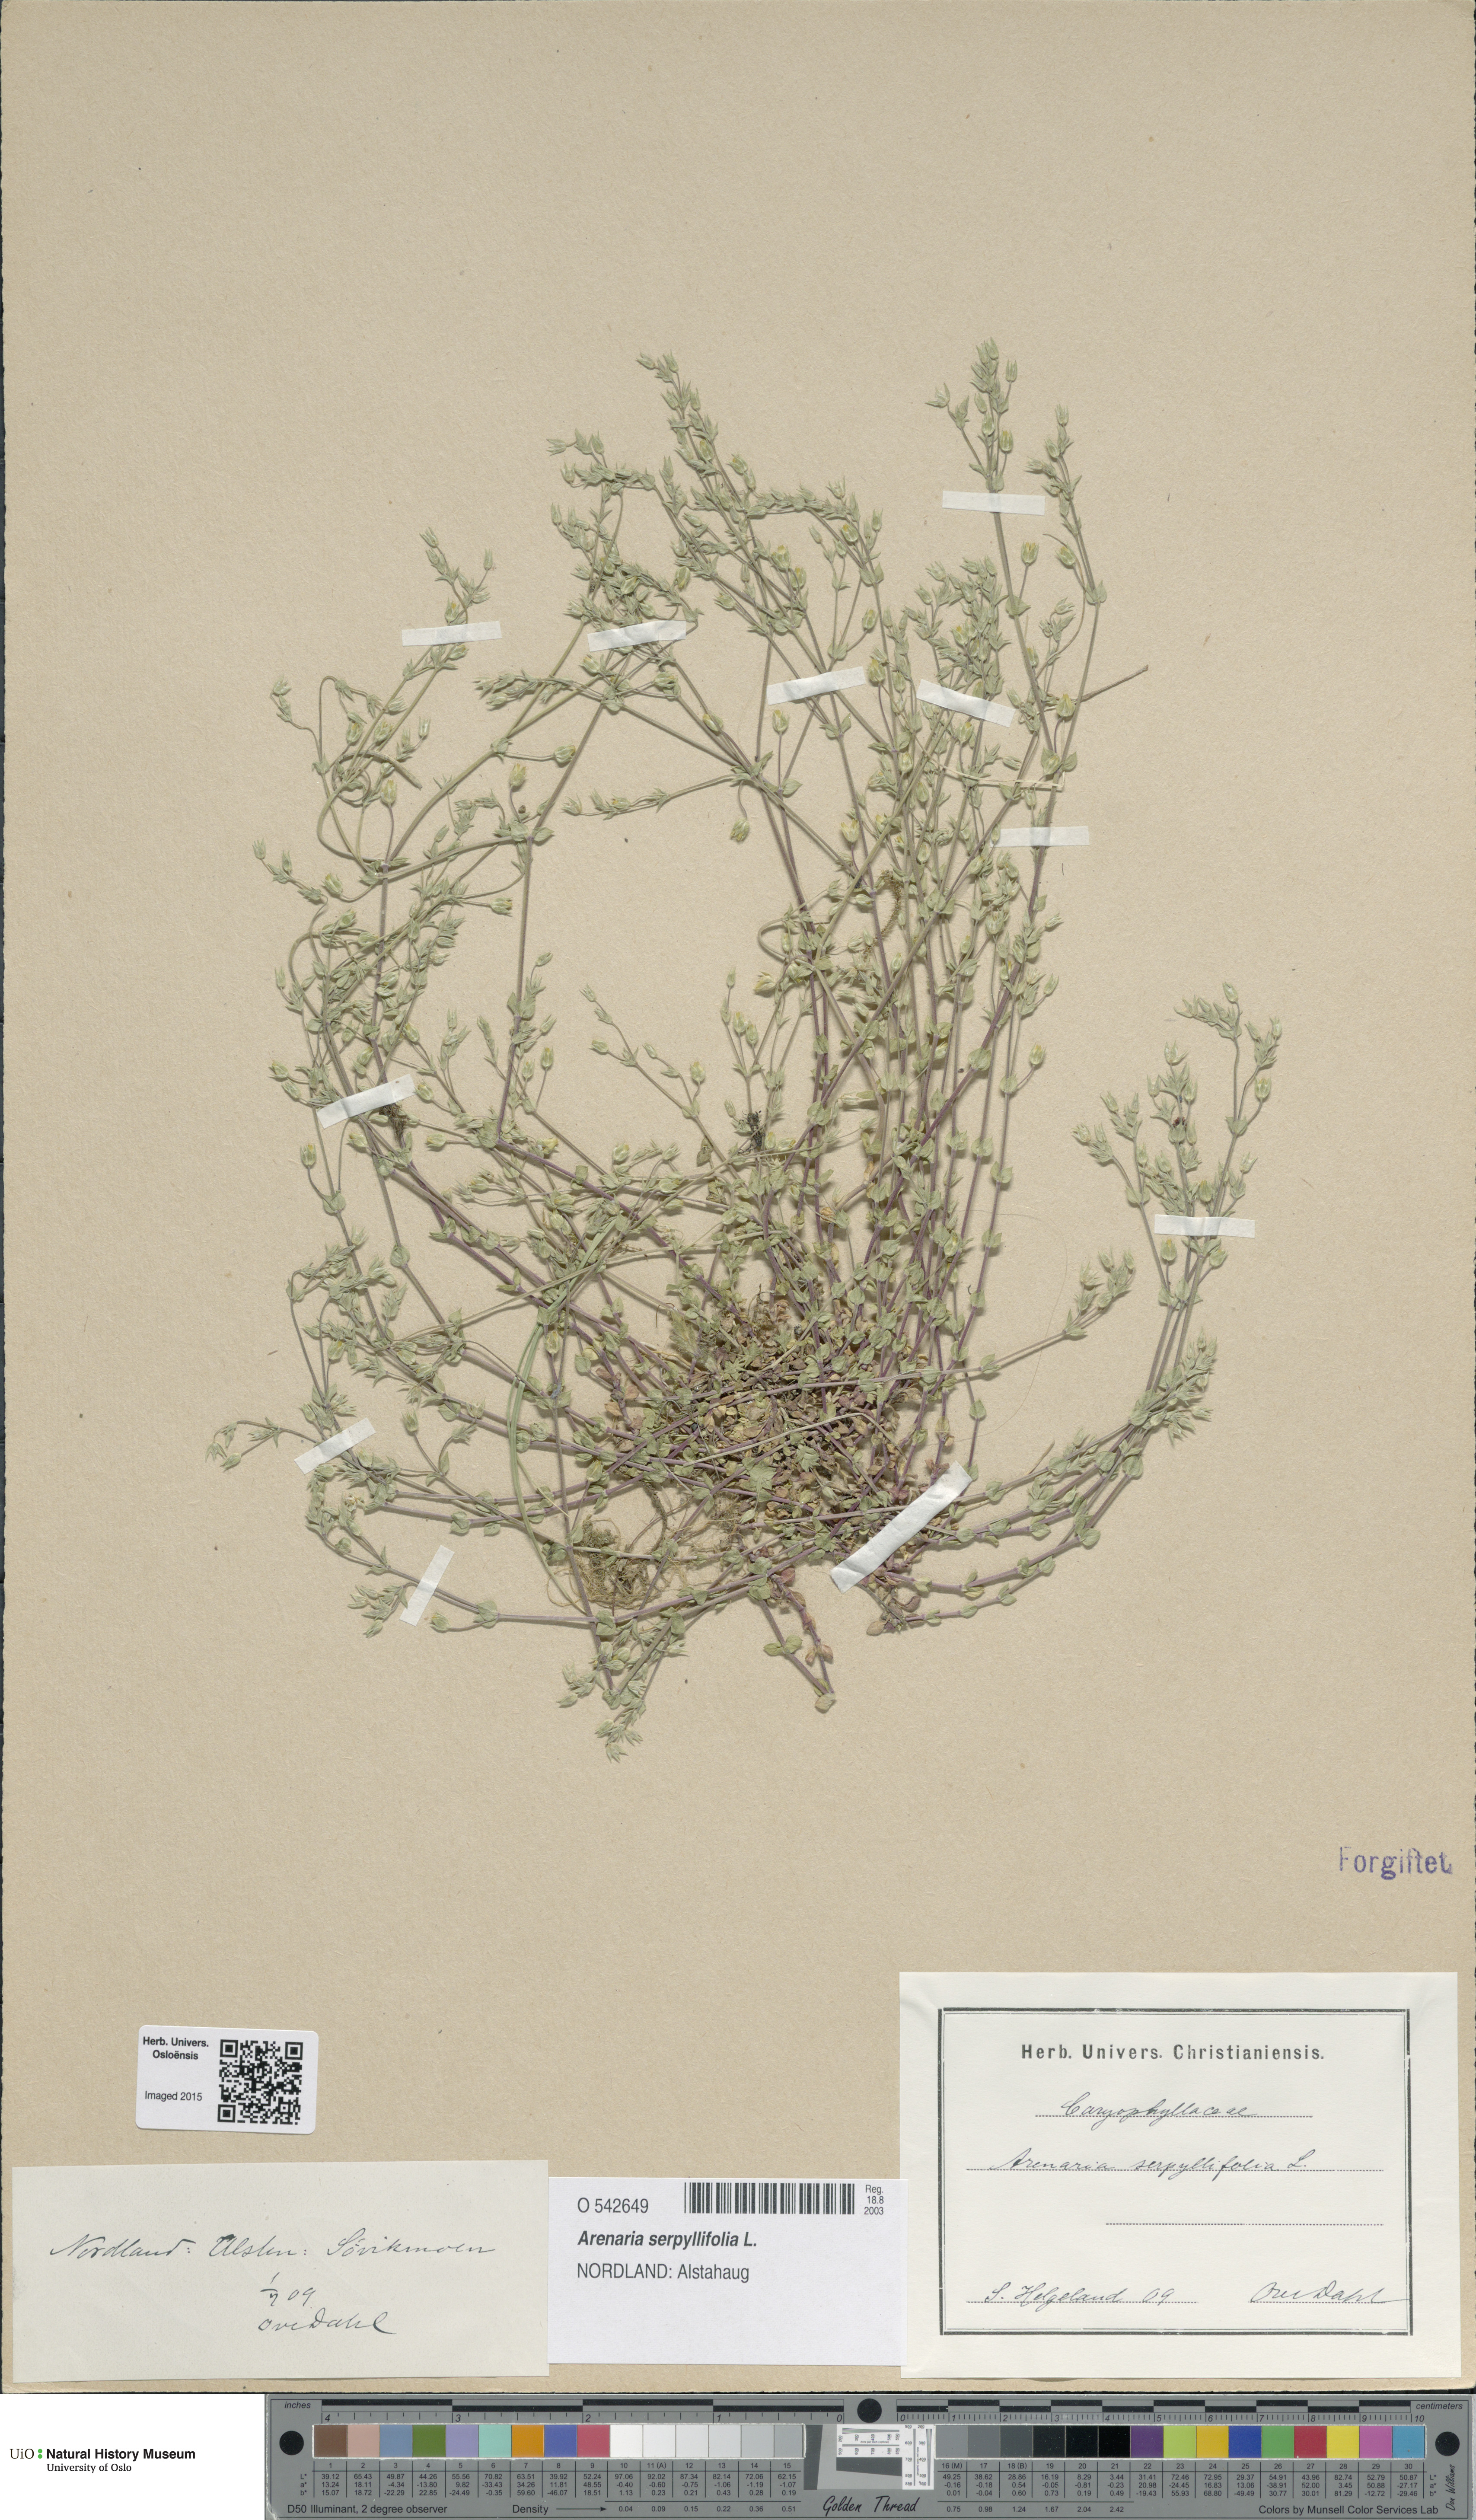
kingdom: Plantae
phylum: Tracheophyta
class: Magnoliopsida
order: Caryophyllales
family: Caryophyllaceae
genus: Arenaria
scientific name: Arenaria serpyllifolia
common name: Thyme-leaved sandwort
